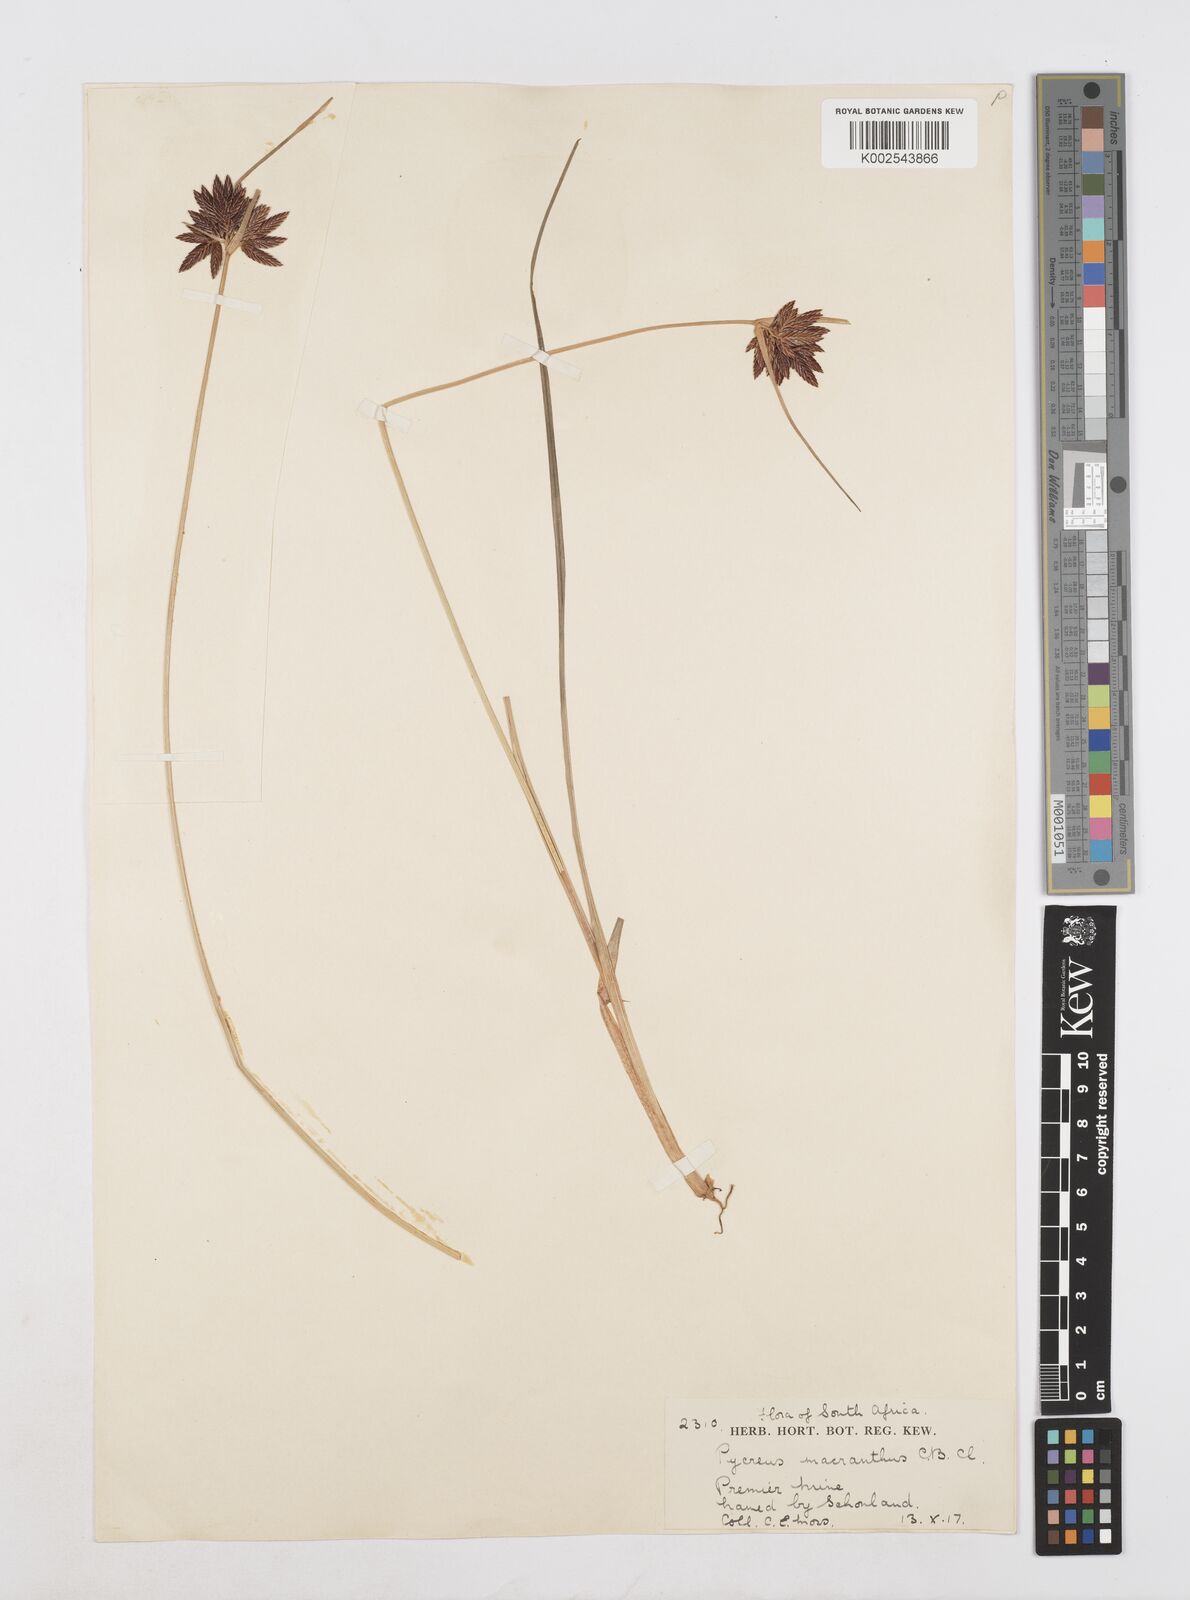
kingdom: Plantae
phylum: Tracheophyta
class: Liliopsida
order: Poales
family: Cyperaceae
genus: Cyperus
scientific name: Cyperus nigricans
